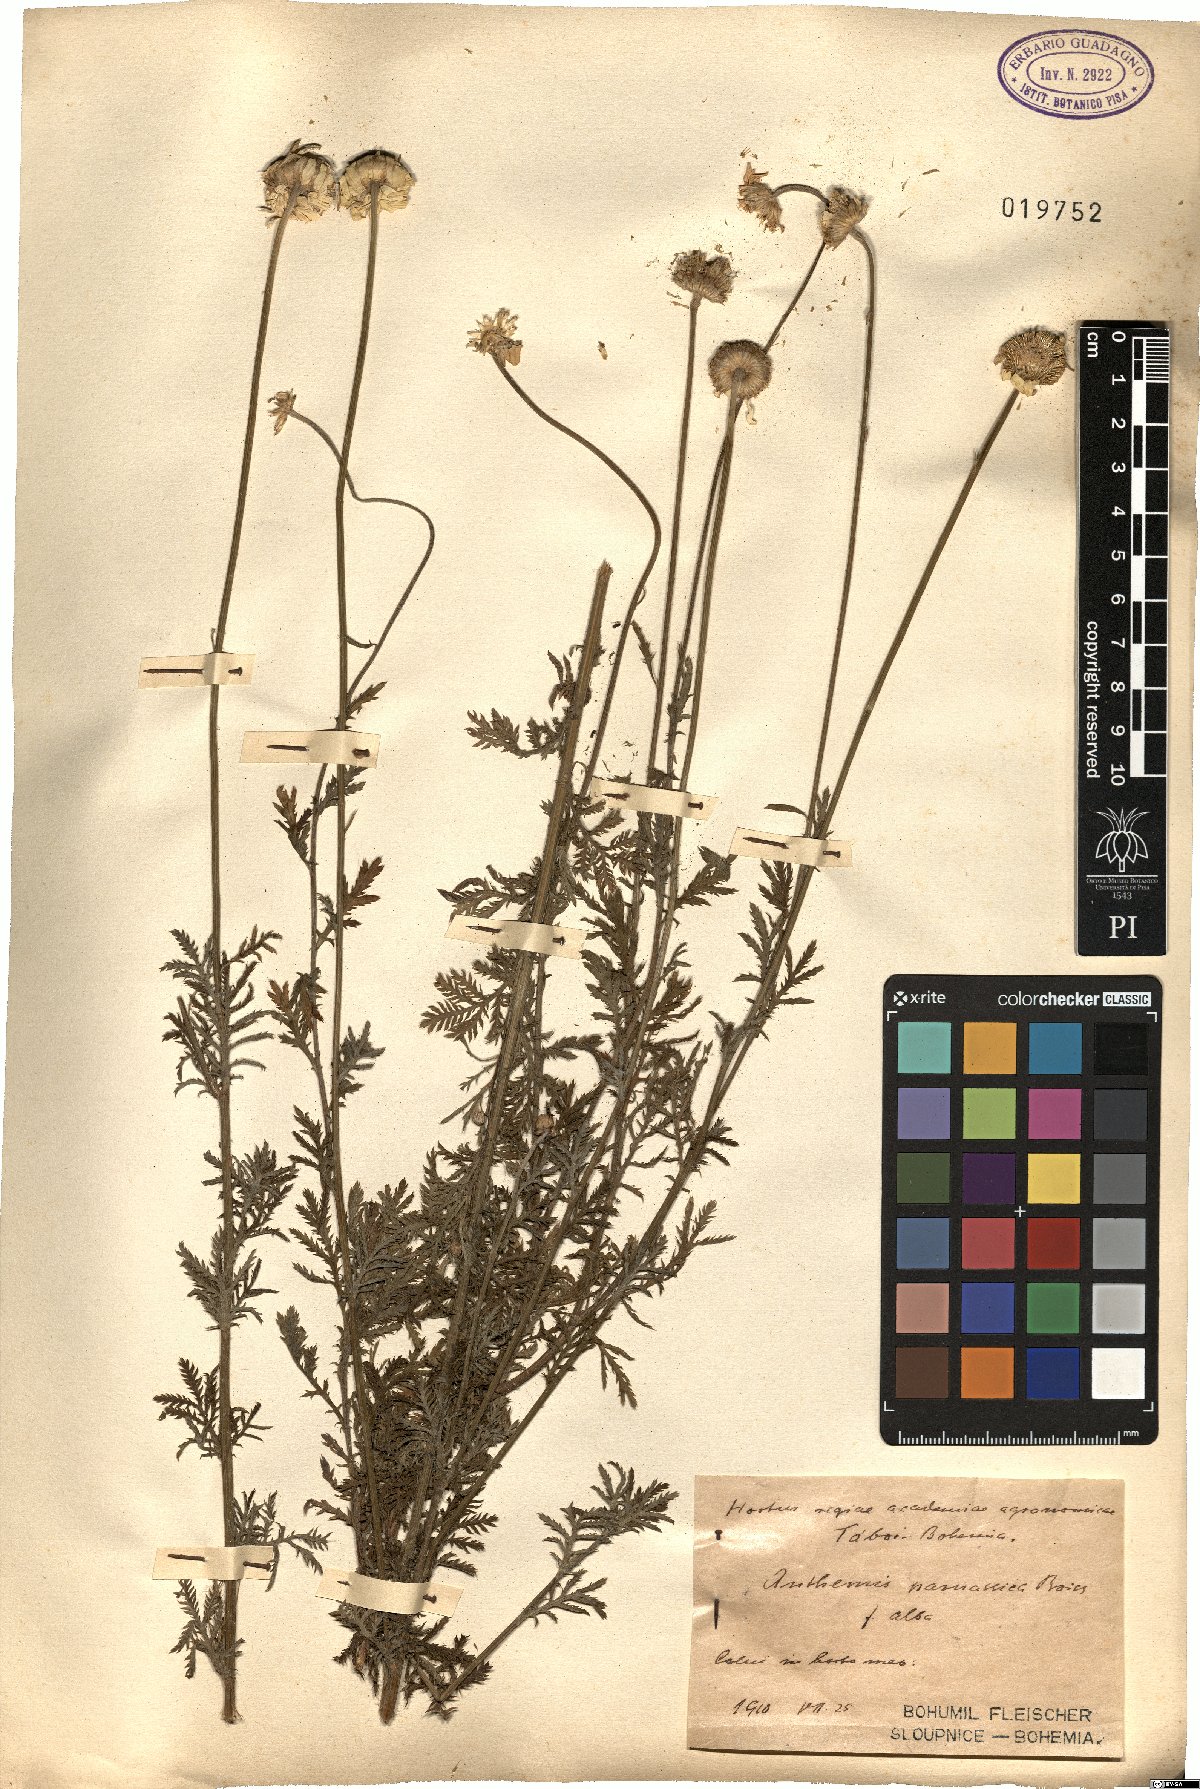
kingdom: Plantae
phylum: Tracheophyta
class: Magnoliopsida
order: Asterales
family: Asteraceae
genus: Cota
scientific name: Cota tinctoria
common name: Golden chamomile
